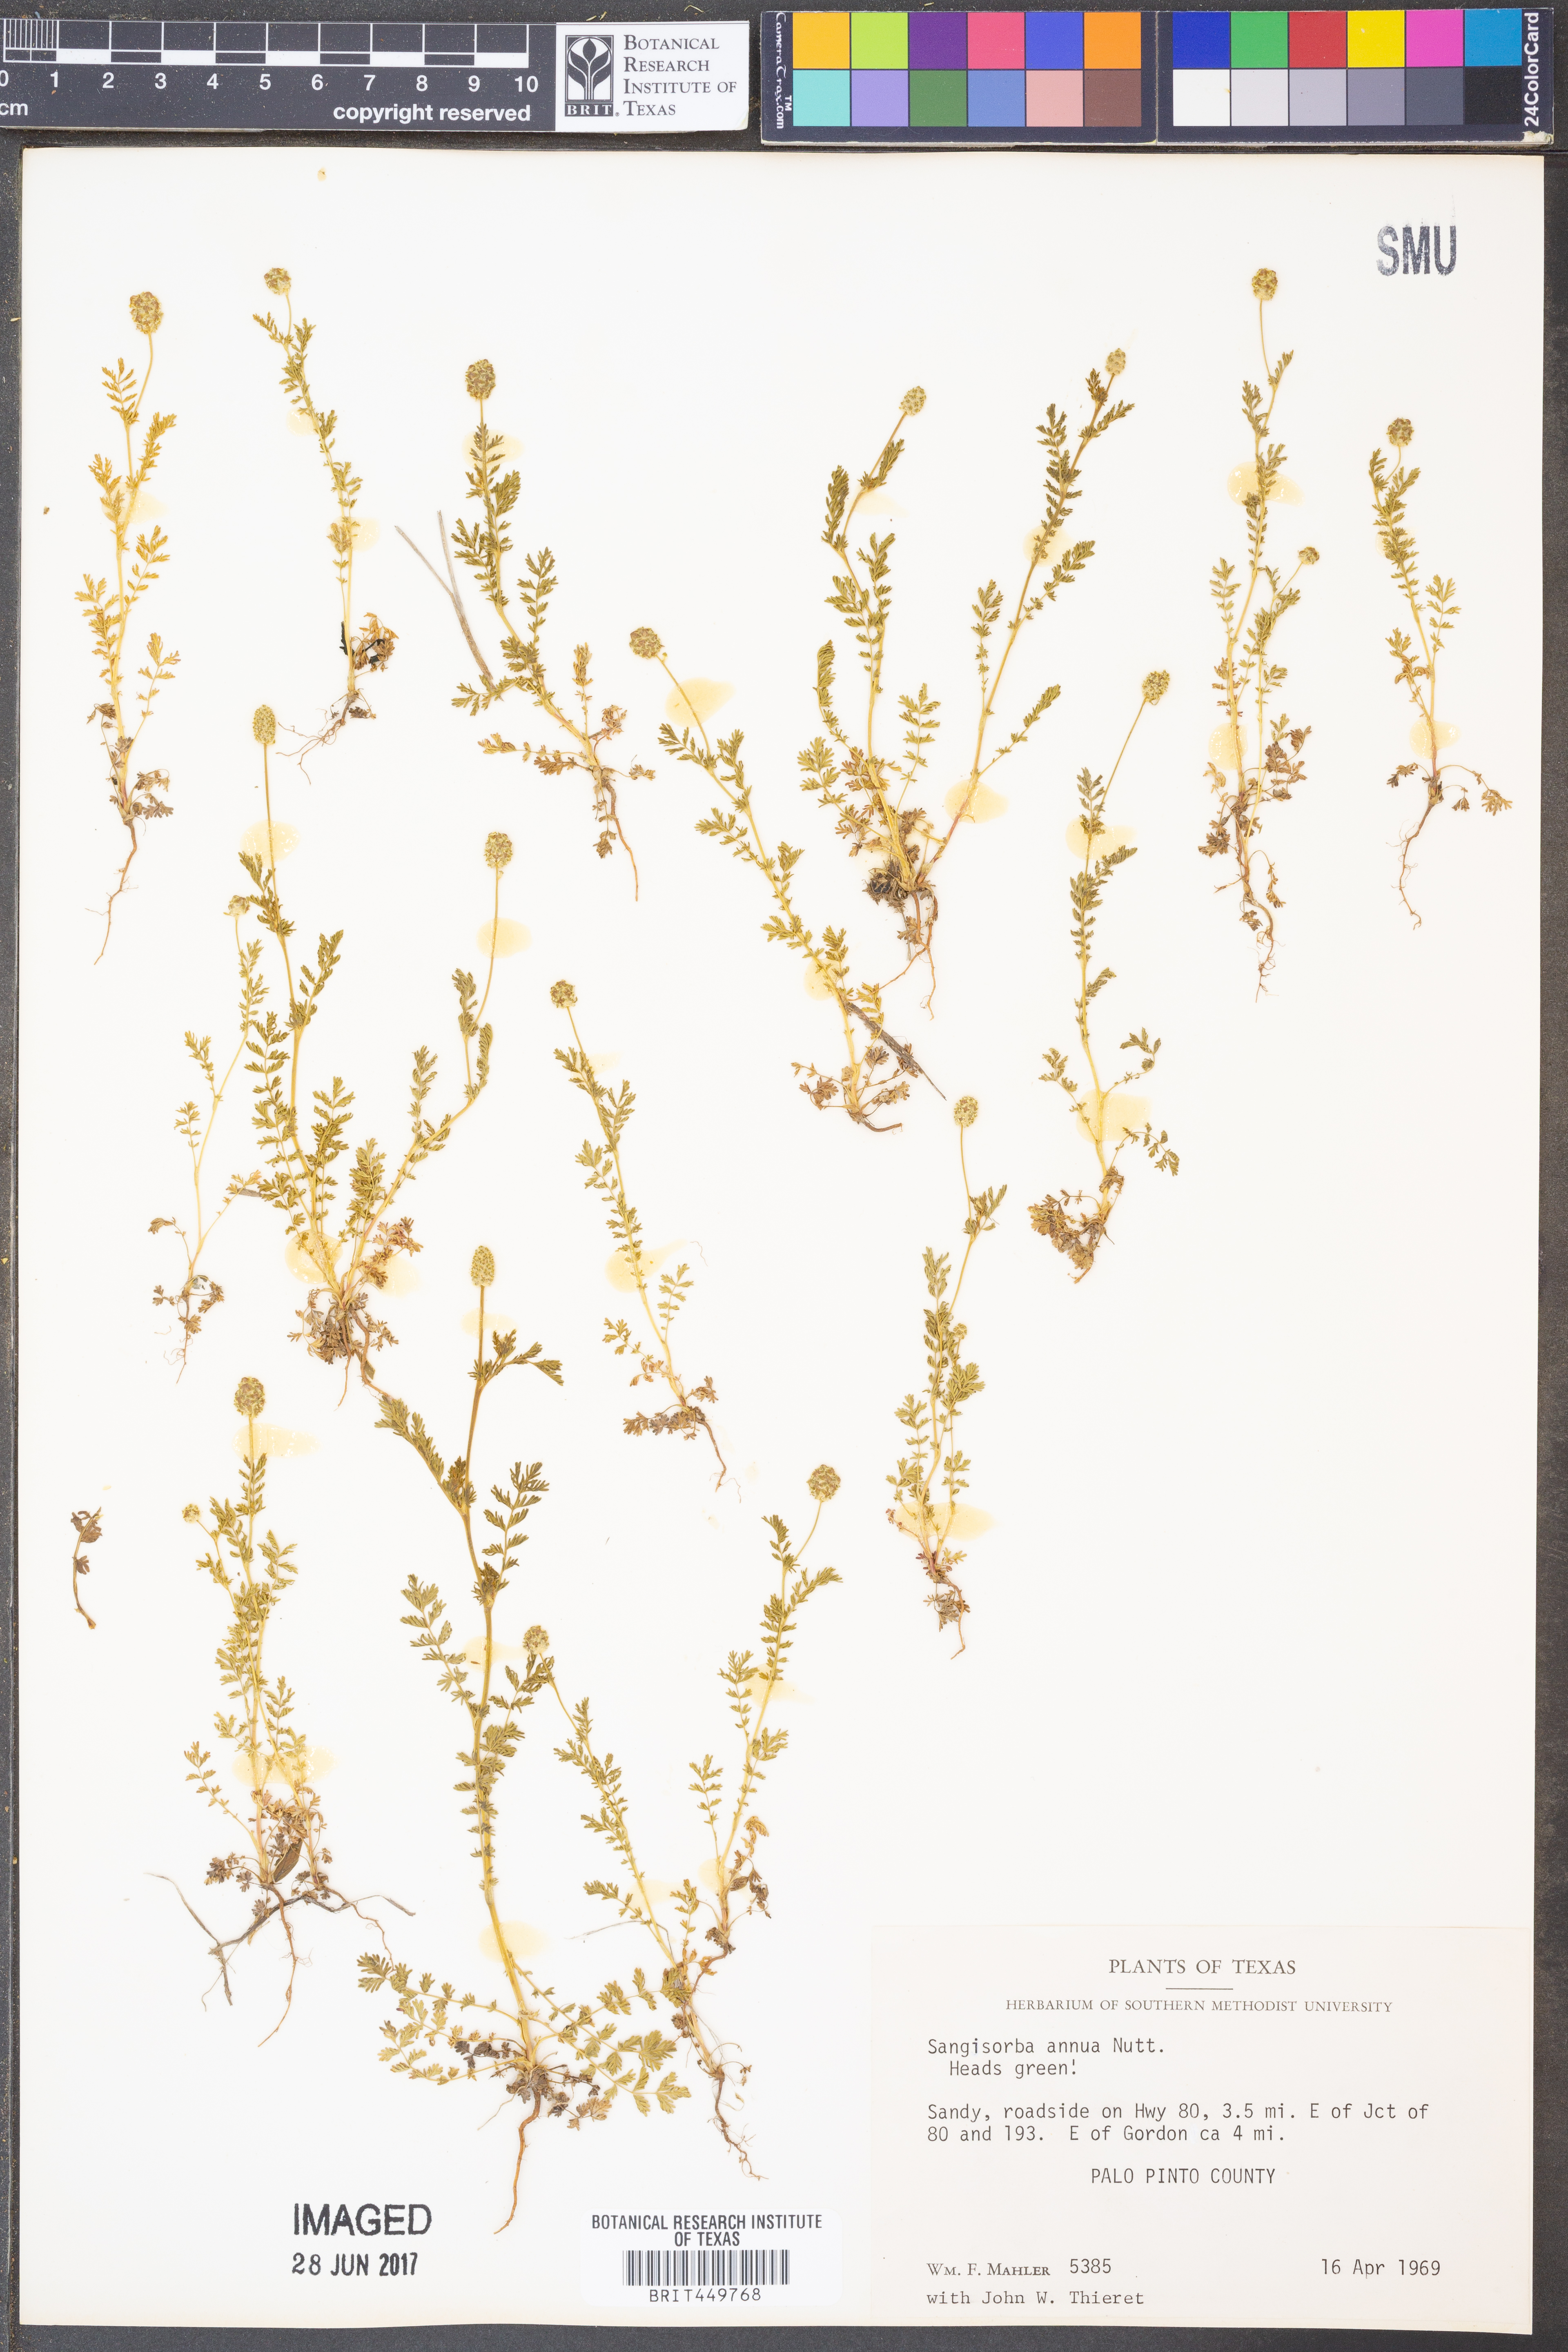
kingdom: Plantae
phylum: Tracheophyta
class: Magnoliopsida
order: Rosales
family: Rosaceae
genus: Poteridium
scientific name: Poteridium annuum
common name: Annual burnet
